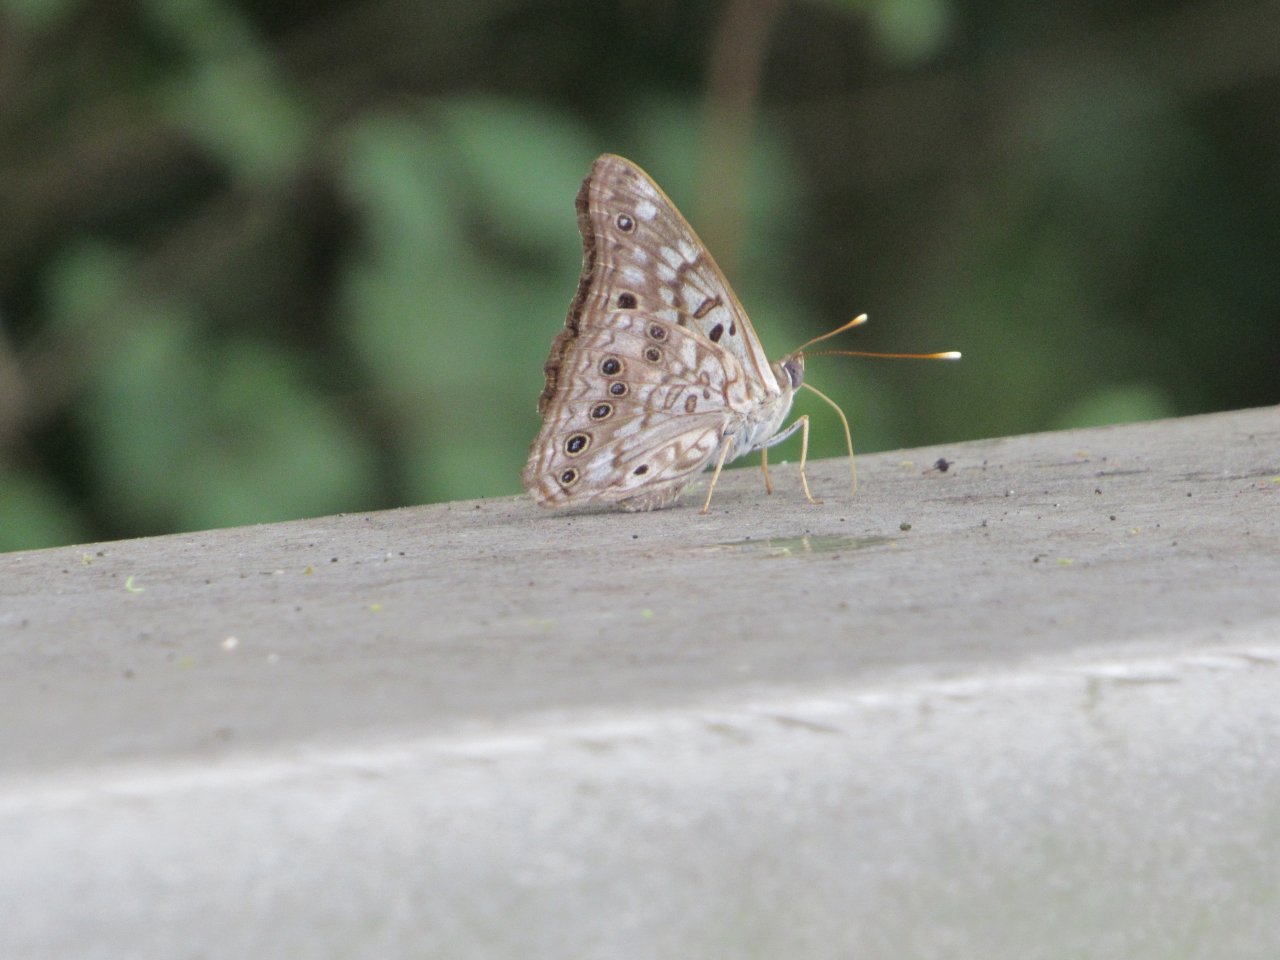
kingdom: Animalia
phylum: Arthropoda
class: Insecta
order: Lepidoptera
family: Nymphalidae
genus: Asterocampa
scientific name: Asterocampa celtis
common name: Hackberry Emperor
